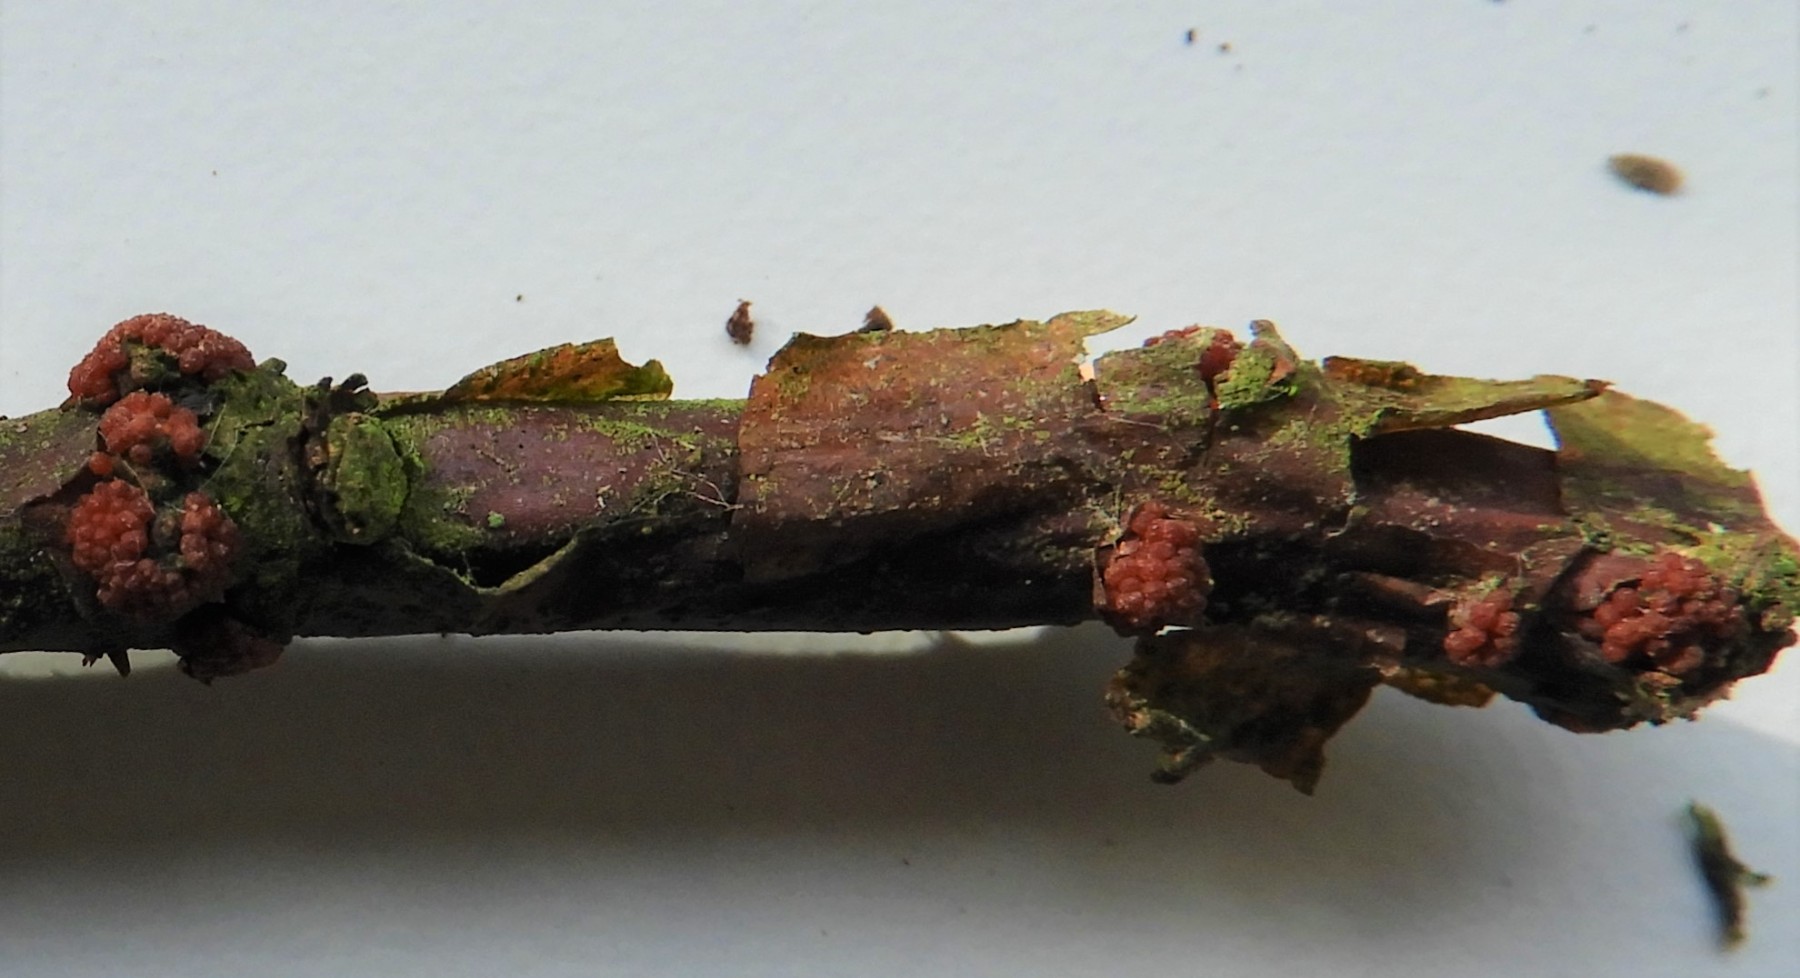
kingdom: Fungi
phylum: Ascomycota
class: Sordariomycetes
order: Hypocreales
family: Nectriaceae
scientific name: Nectriaceae
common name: cinnobersvampfamilien
